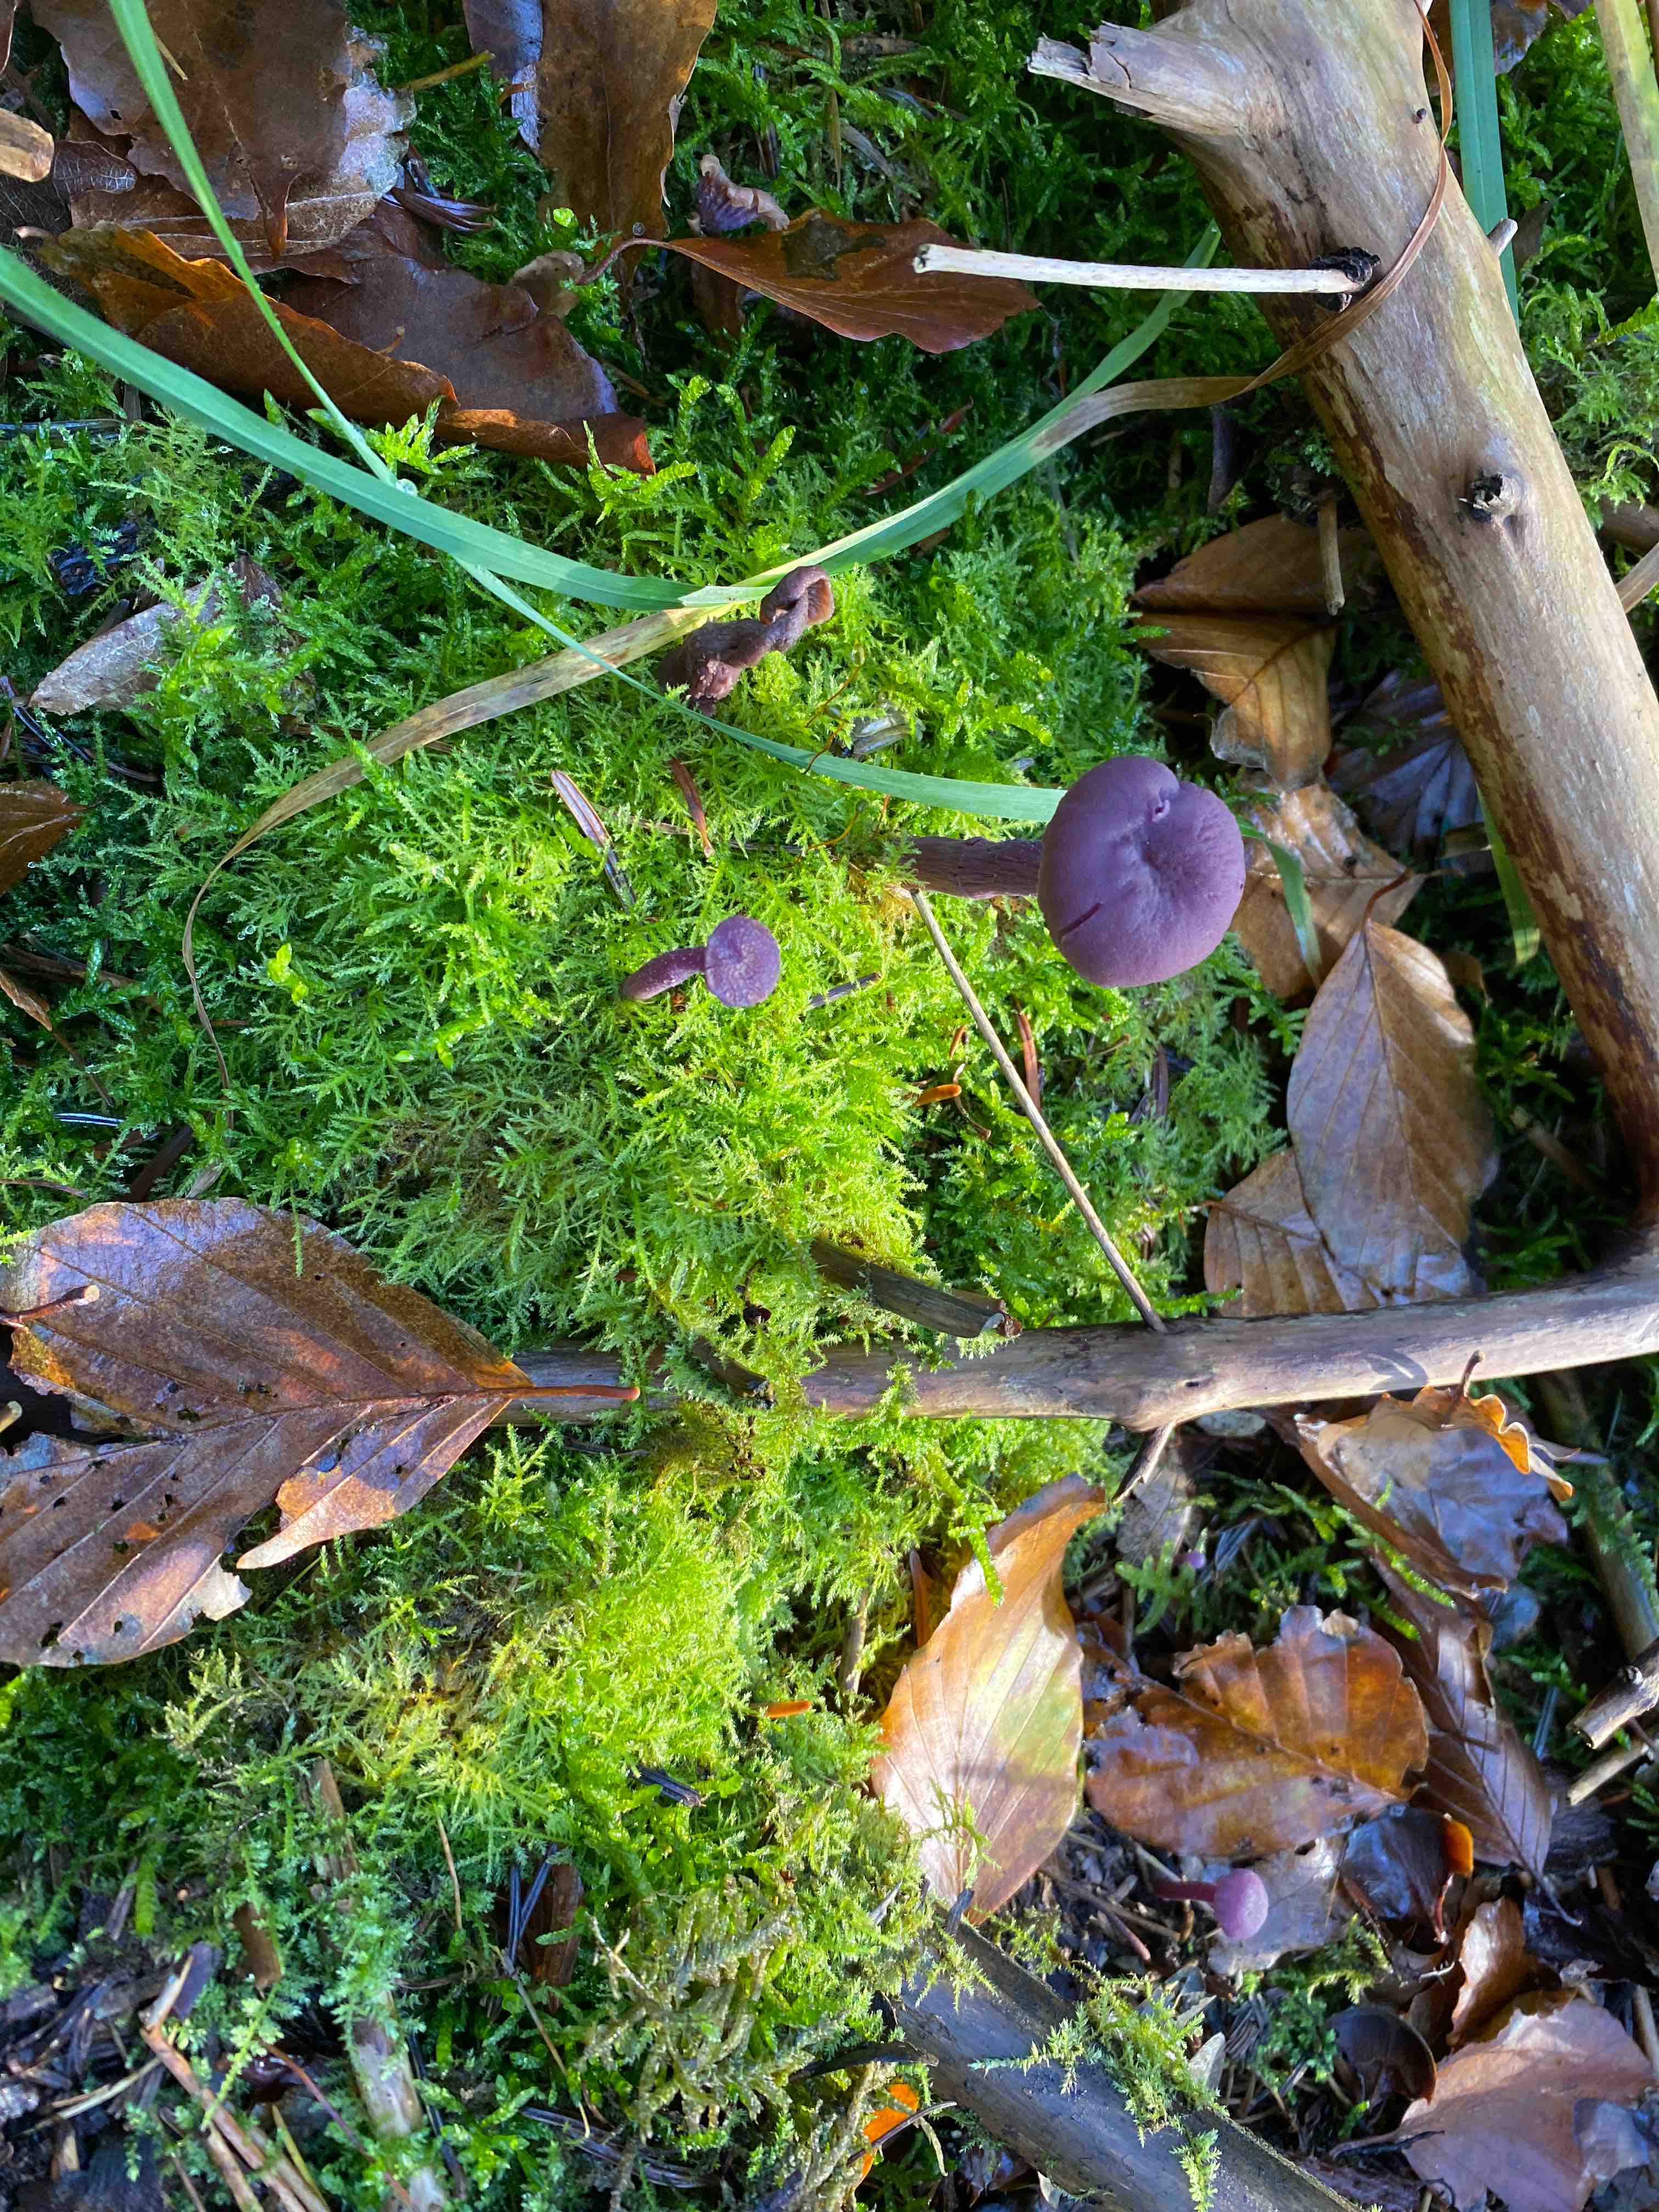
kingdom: Fungi
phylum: Basidiomycota
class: Agaricomycetes
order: Agaricales
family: Hydnangiaceae
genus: Laccaria
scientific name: Laccaria amethystina
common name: violet ametysthat
